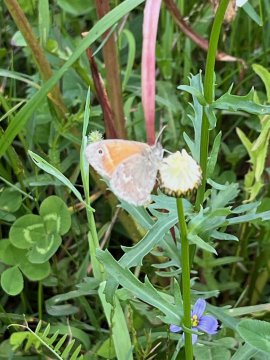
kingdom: Animalia
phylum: Arthropoda
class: Insecta
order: Lepidoptera
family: Nymphalidae
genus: Coenonympha
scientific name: Coenonympha tullia
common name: Large Heath
